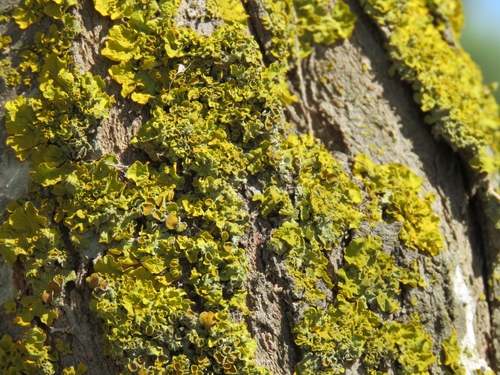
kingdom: Fungi
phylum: Ascomycota
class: Lecanoromycetes
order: Teloschistales
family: Teloschistaceae
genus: Xanthoria
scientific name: Xanthoria parietina
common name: Common orange lichen
